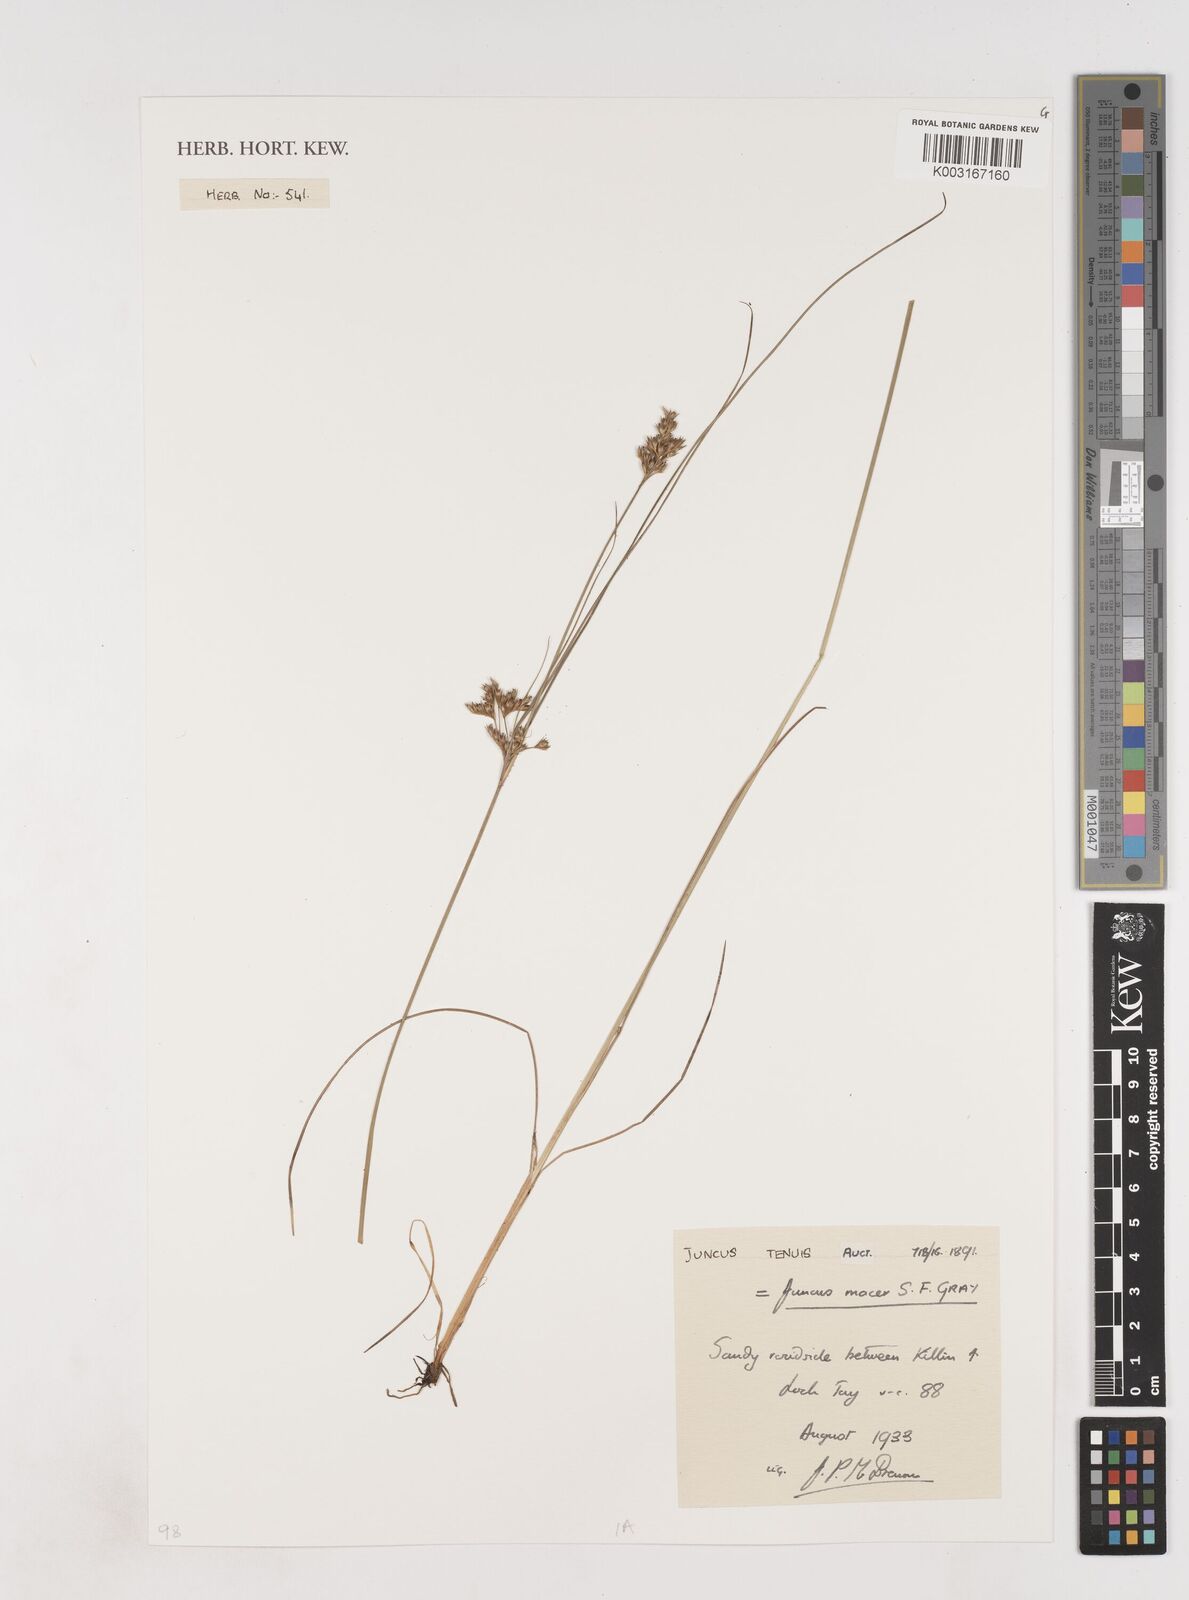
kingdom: Plantae
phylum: Tracheophyta
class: Liliopsida
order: Poales
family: Juncaceae
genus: Juncus
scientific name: Juncus tenuis
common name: Slender rush
